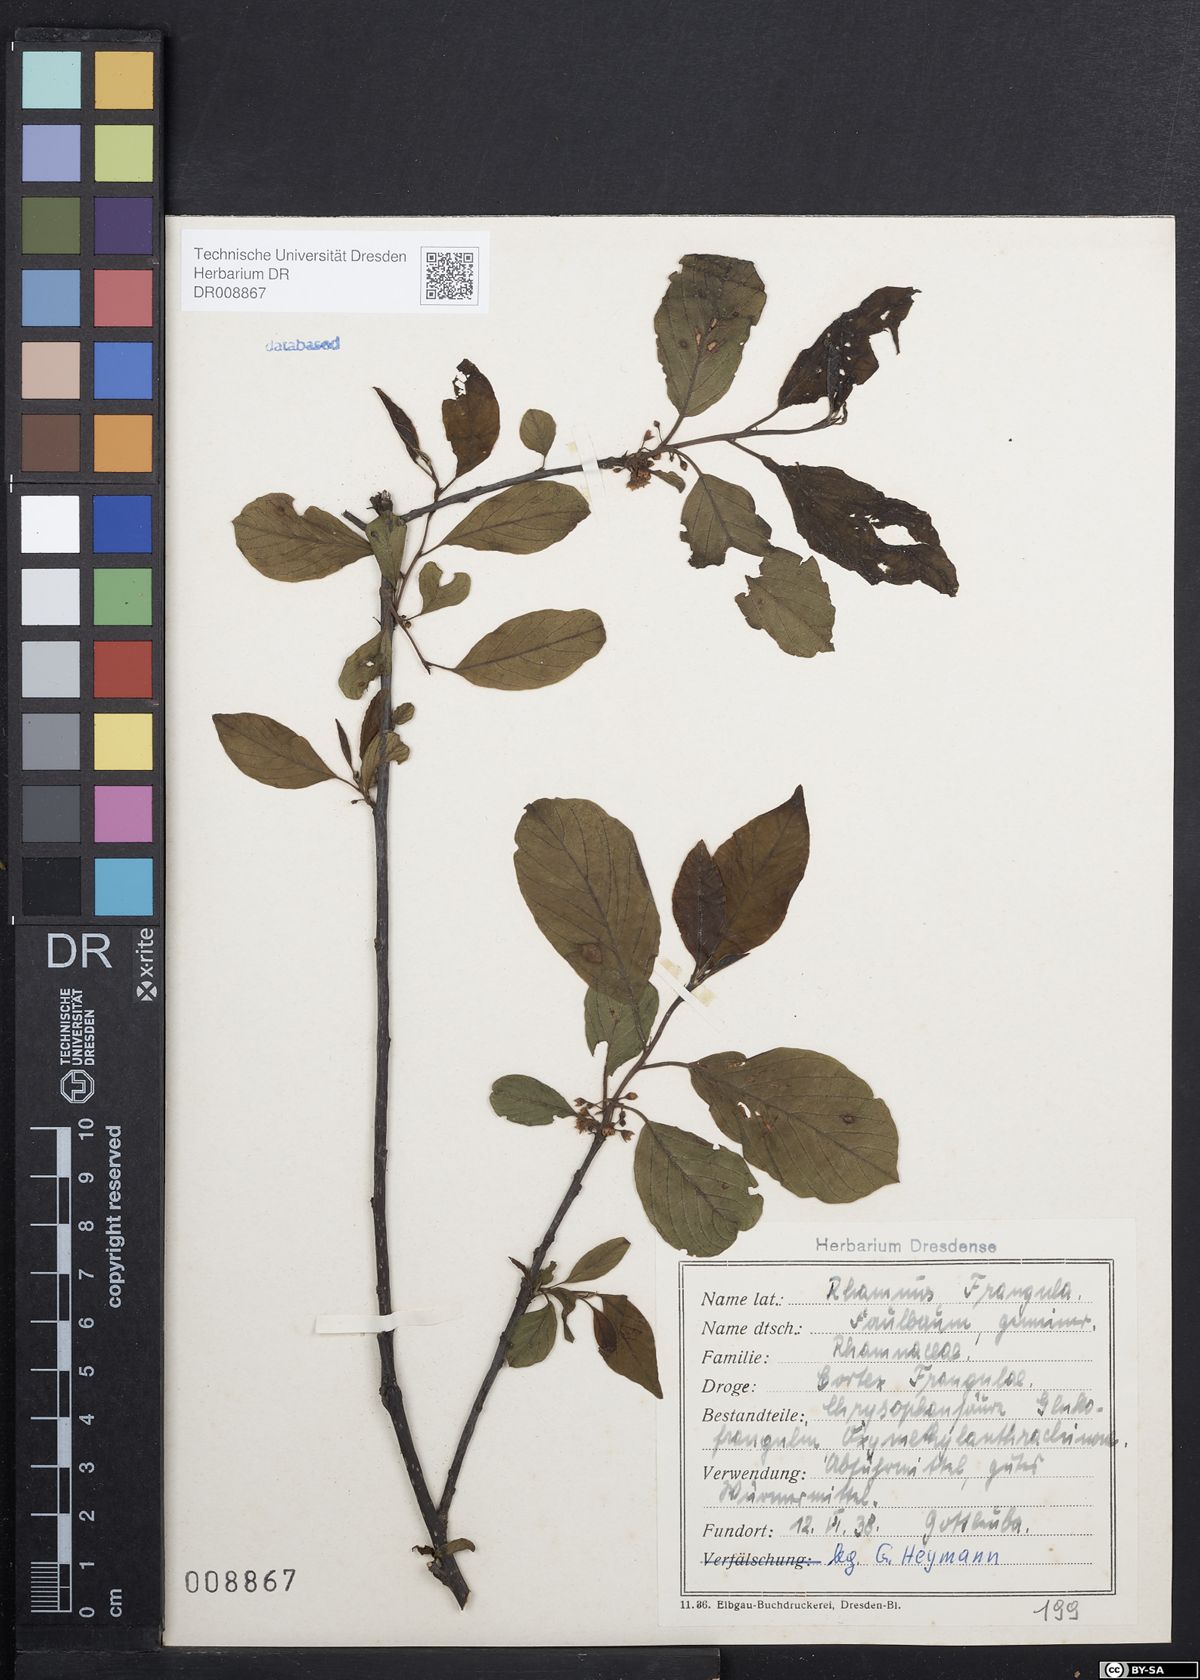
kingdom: Plantae
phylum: Tracheophyta
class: Magnoliopsida
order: Rosales
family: Rhamnaceae
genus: Frangula
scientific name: Frangula alnus
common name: Alder buckthorn
